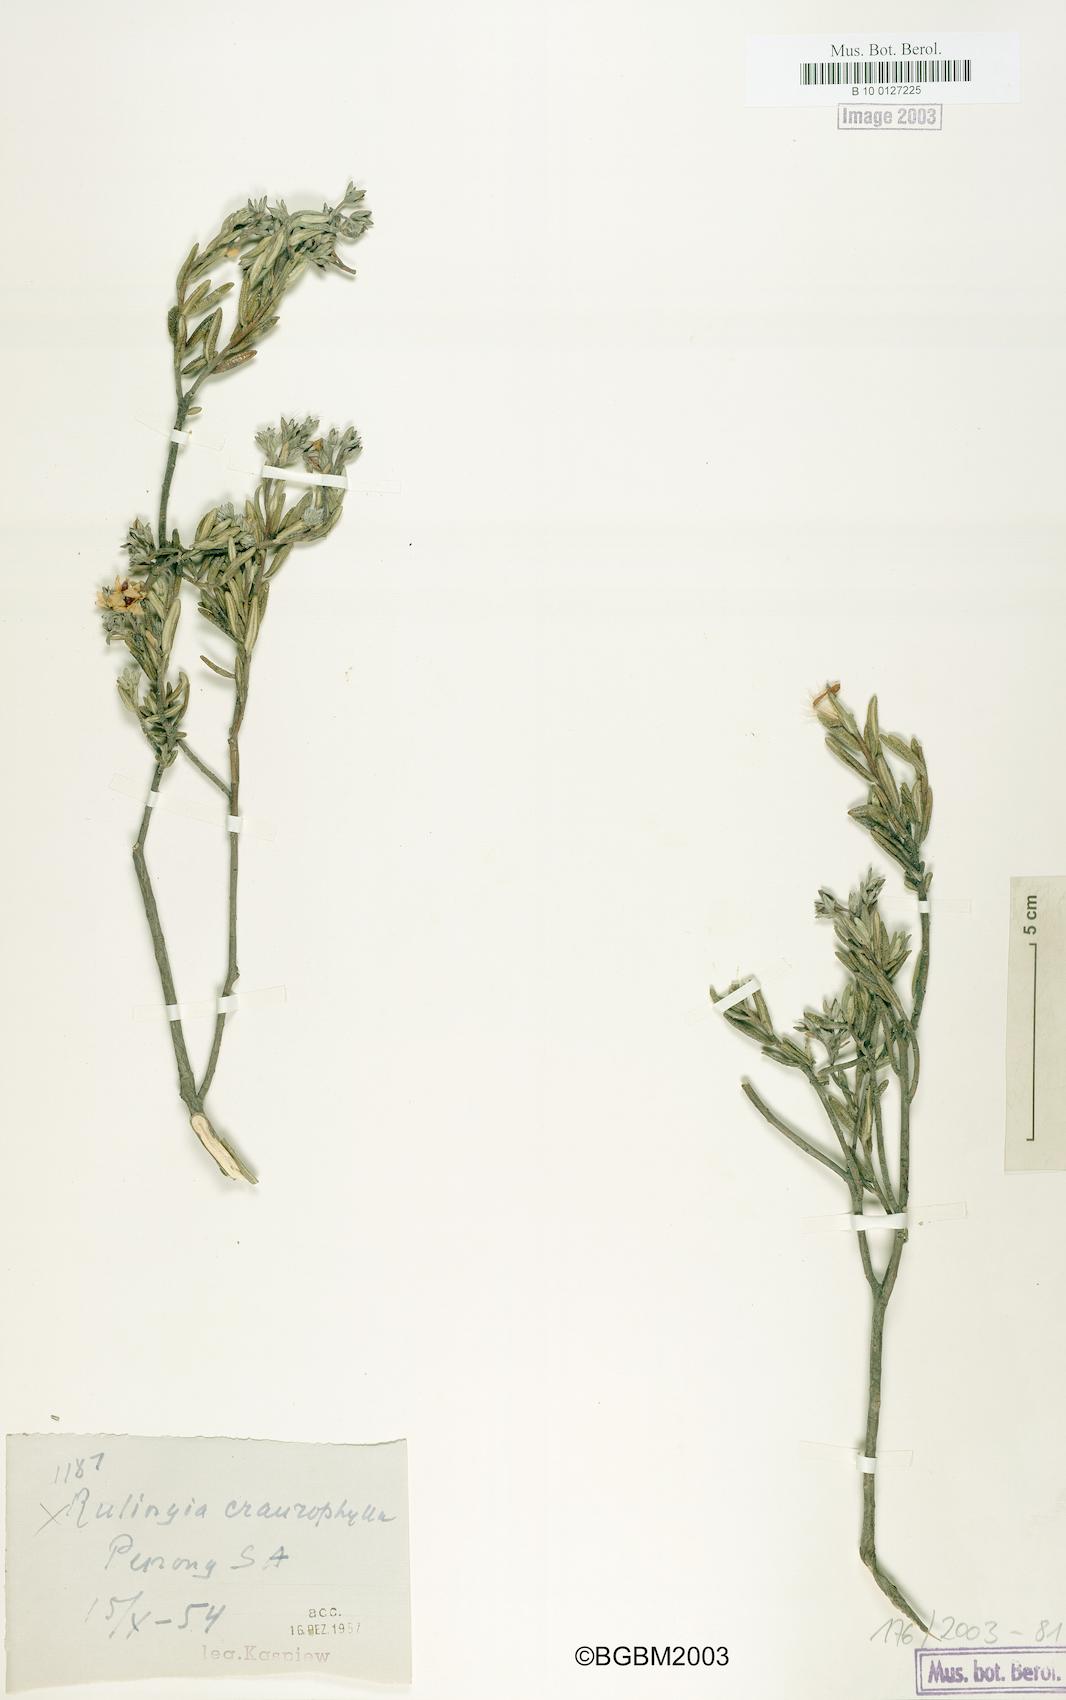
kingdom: Plantae
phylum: Tracheophyta
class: Magnoliopsida
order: Malvales
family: Malvaceae
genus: Commersonia
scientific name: Commersonia craurophylla
